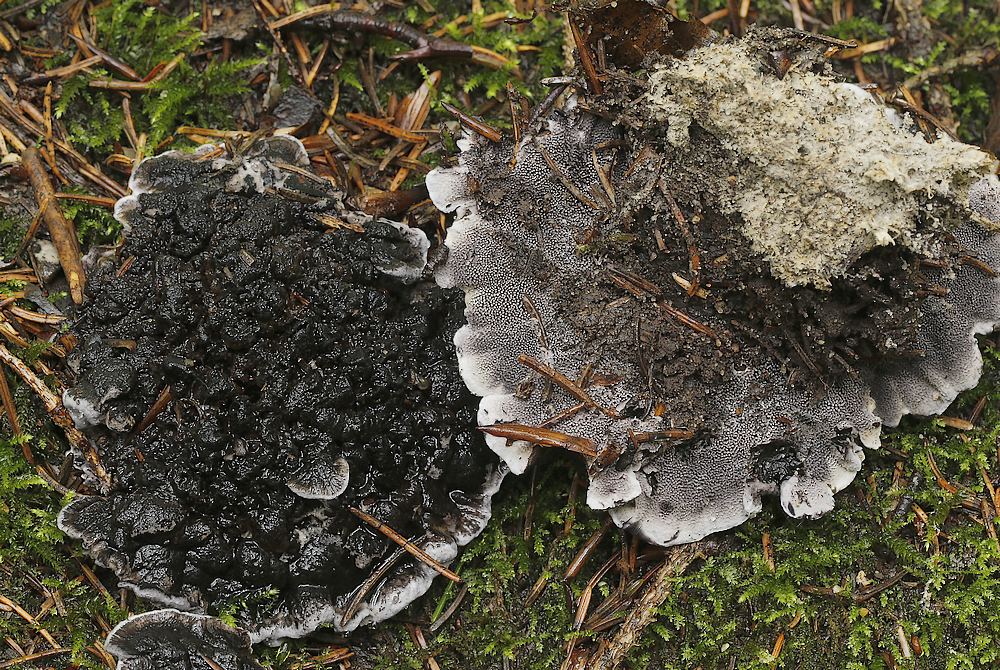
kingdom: Fungi
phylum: Basidiomycota
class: Agaricomycetes
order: Thelephorales
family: Thelephoraceae
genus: Phellodon
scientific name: Phellodon
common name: mørk duftpigsvamp
